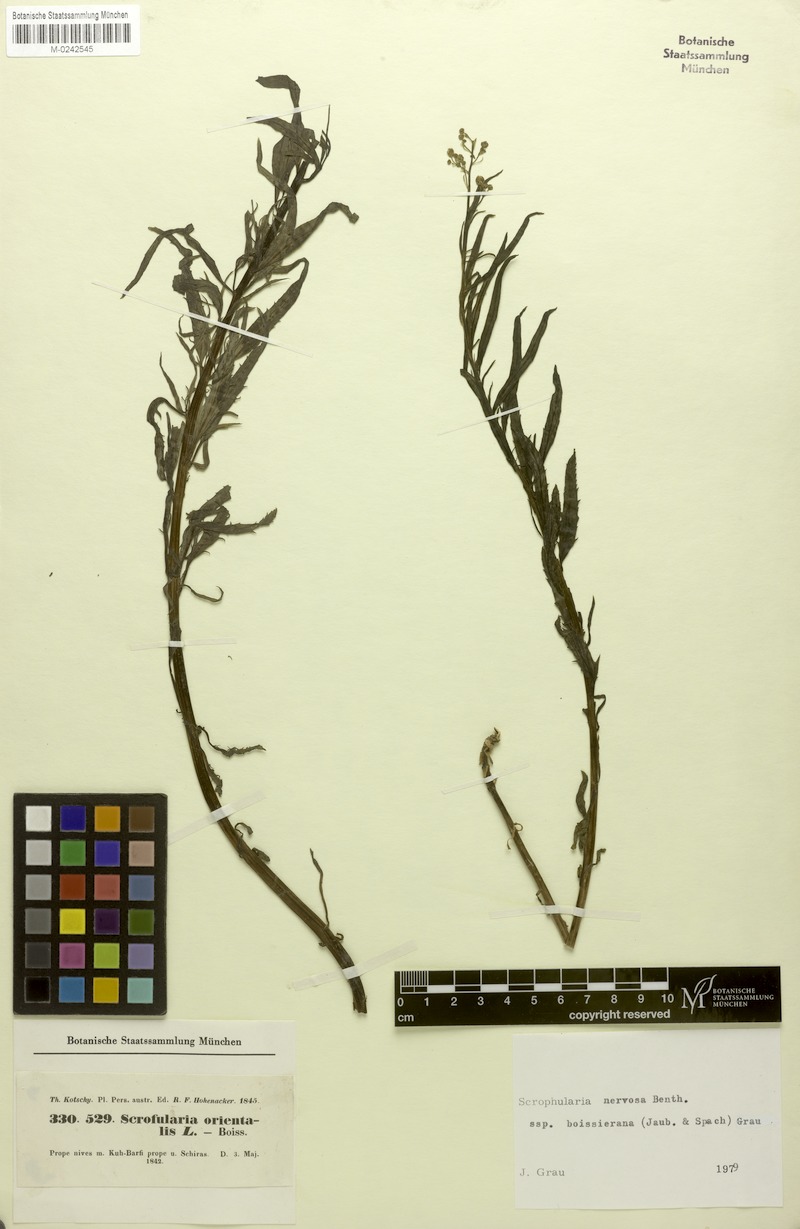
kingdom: Plantae
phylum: Tracheophyta
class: Magnoliopsida
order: Lamiales
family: Scrophulariaceae
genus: Scrophularia
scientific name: Scrophularia nervosa
